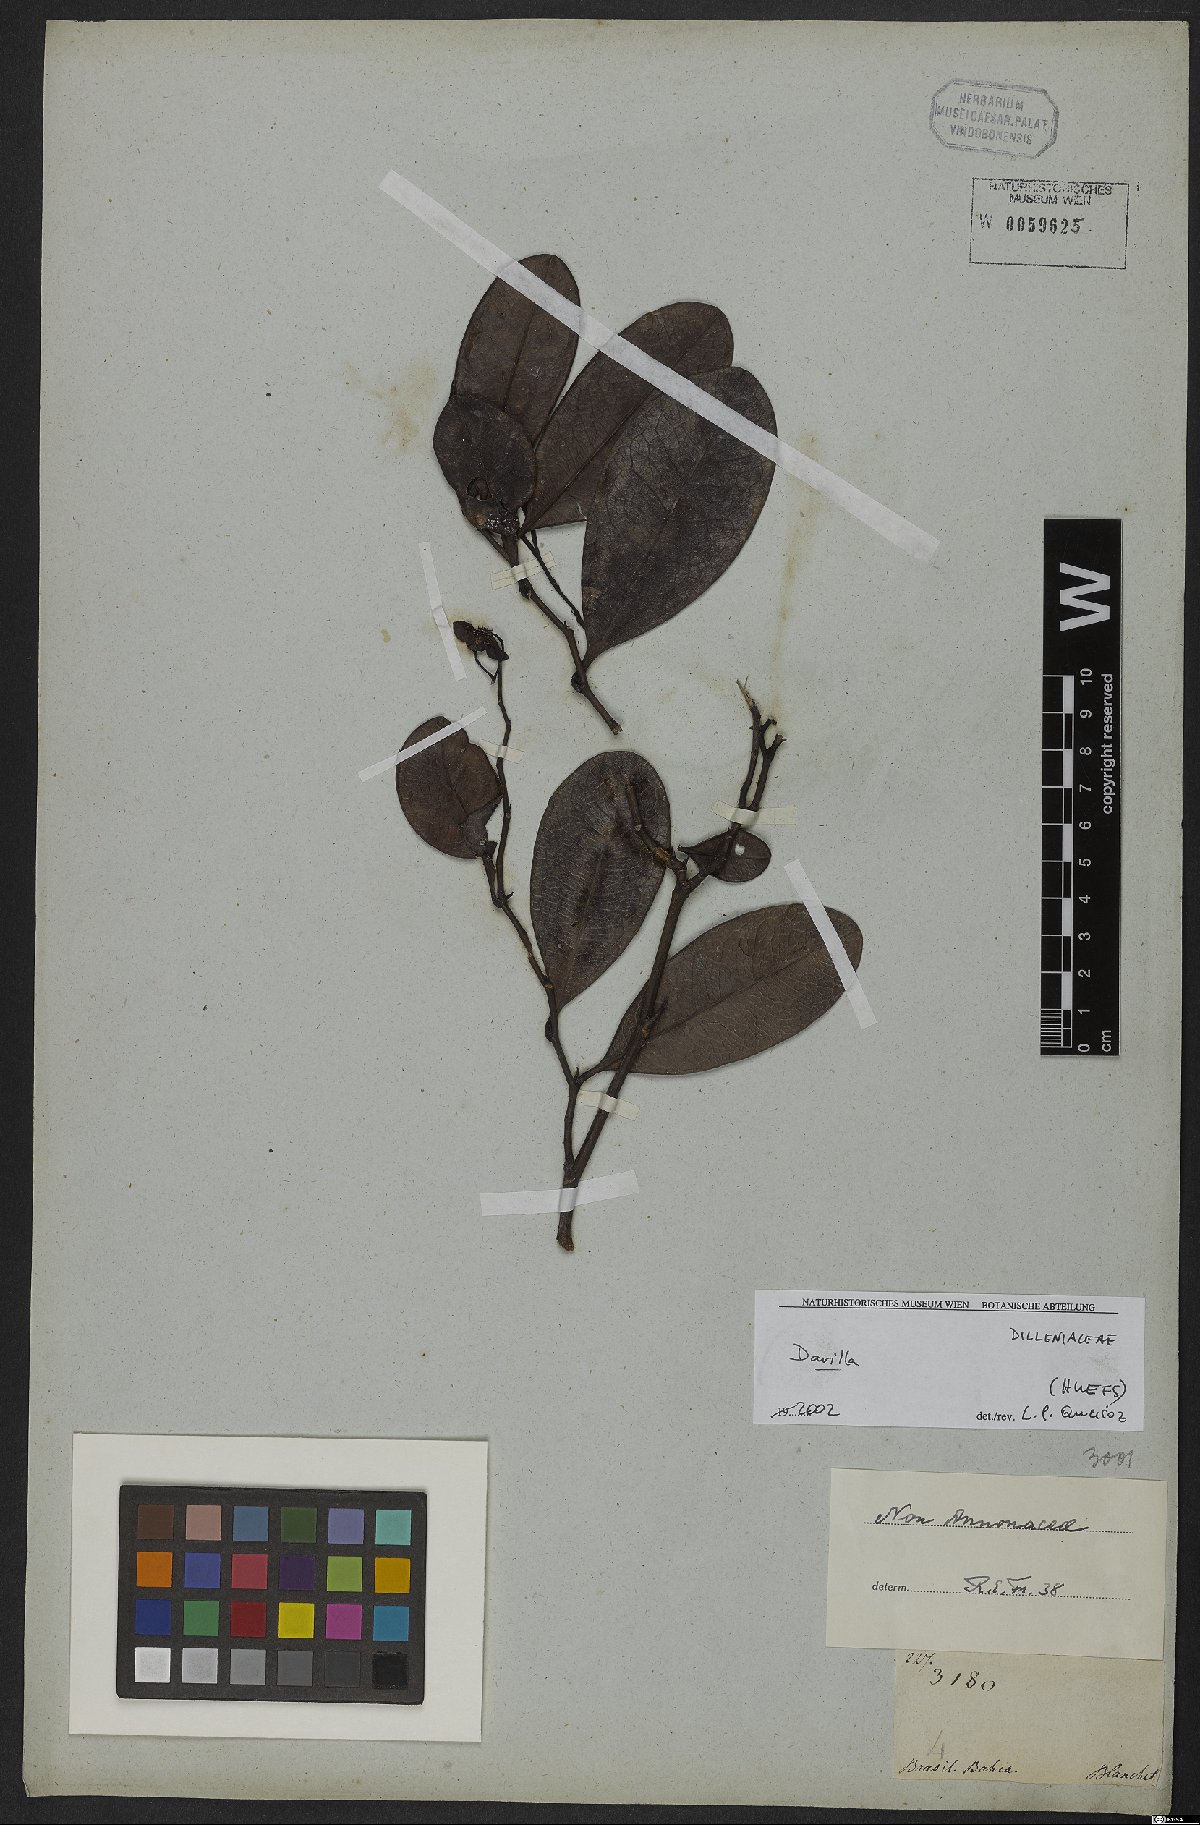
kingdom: Plantae
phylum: Tracheophyta
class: Magnoliopsida
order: Dilleniales
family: Dilleniaceae
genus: Davilla
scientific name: Davilla
